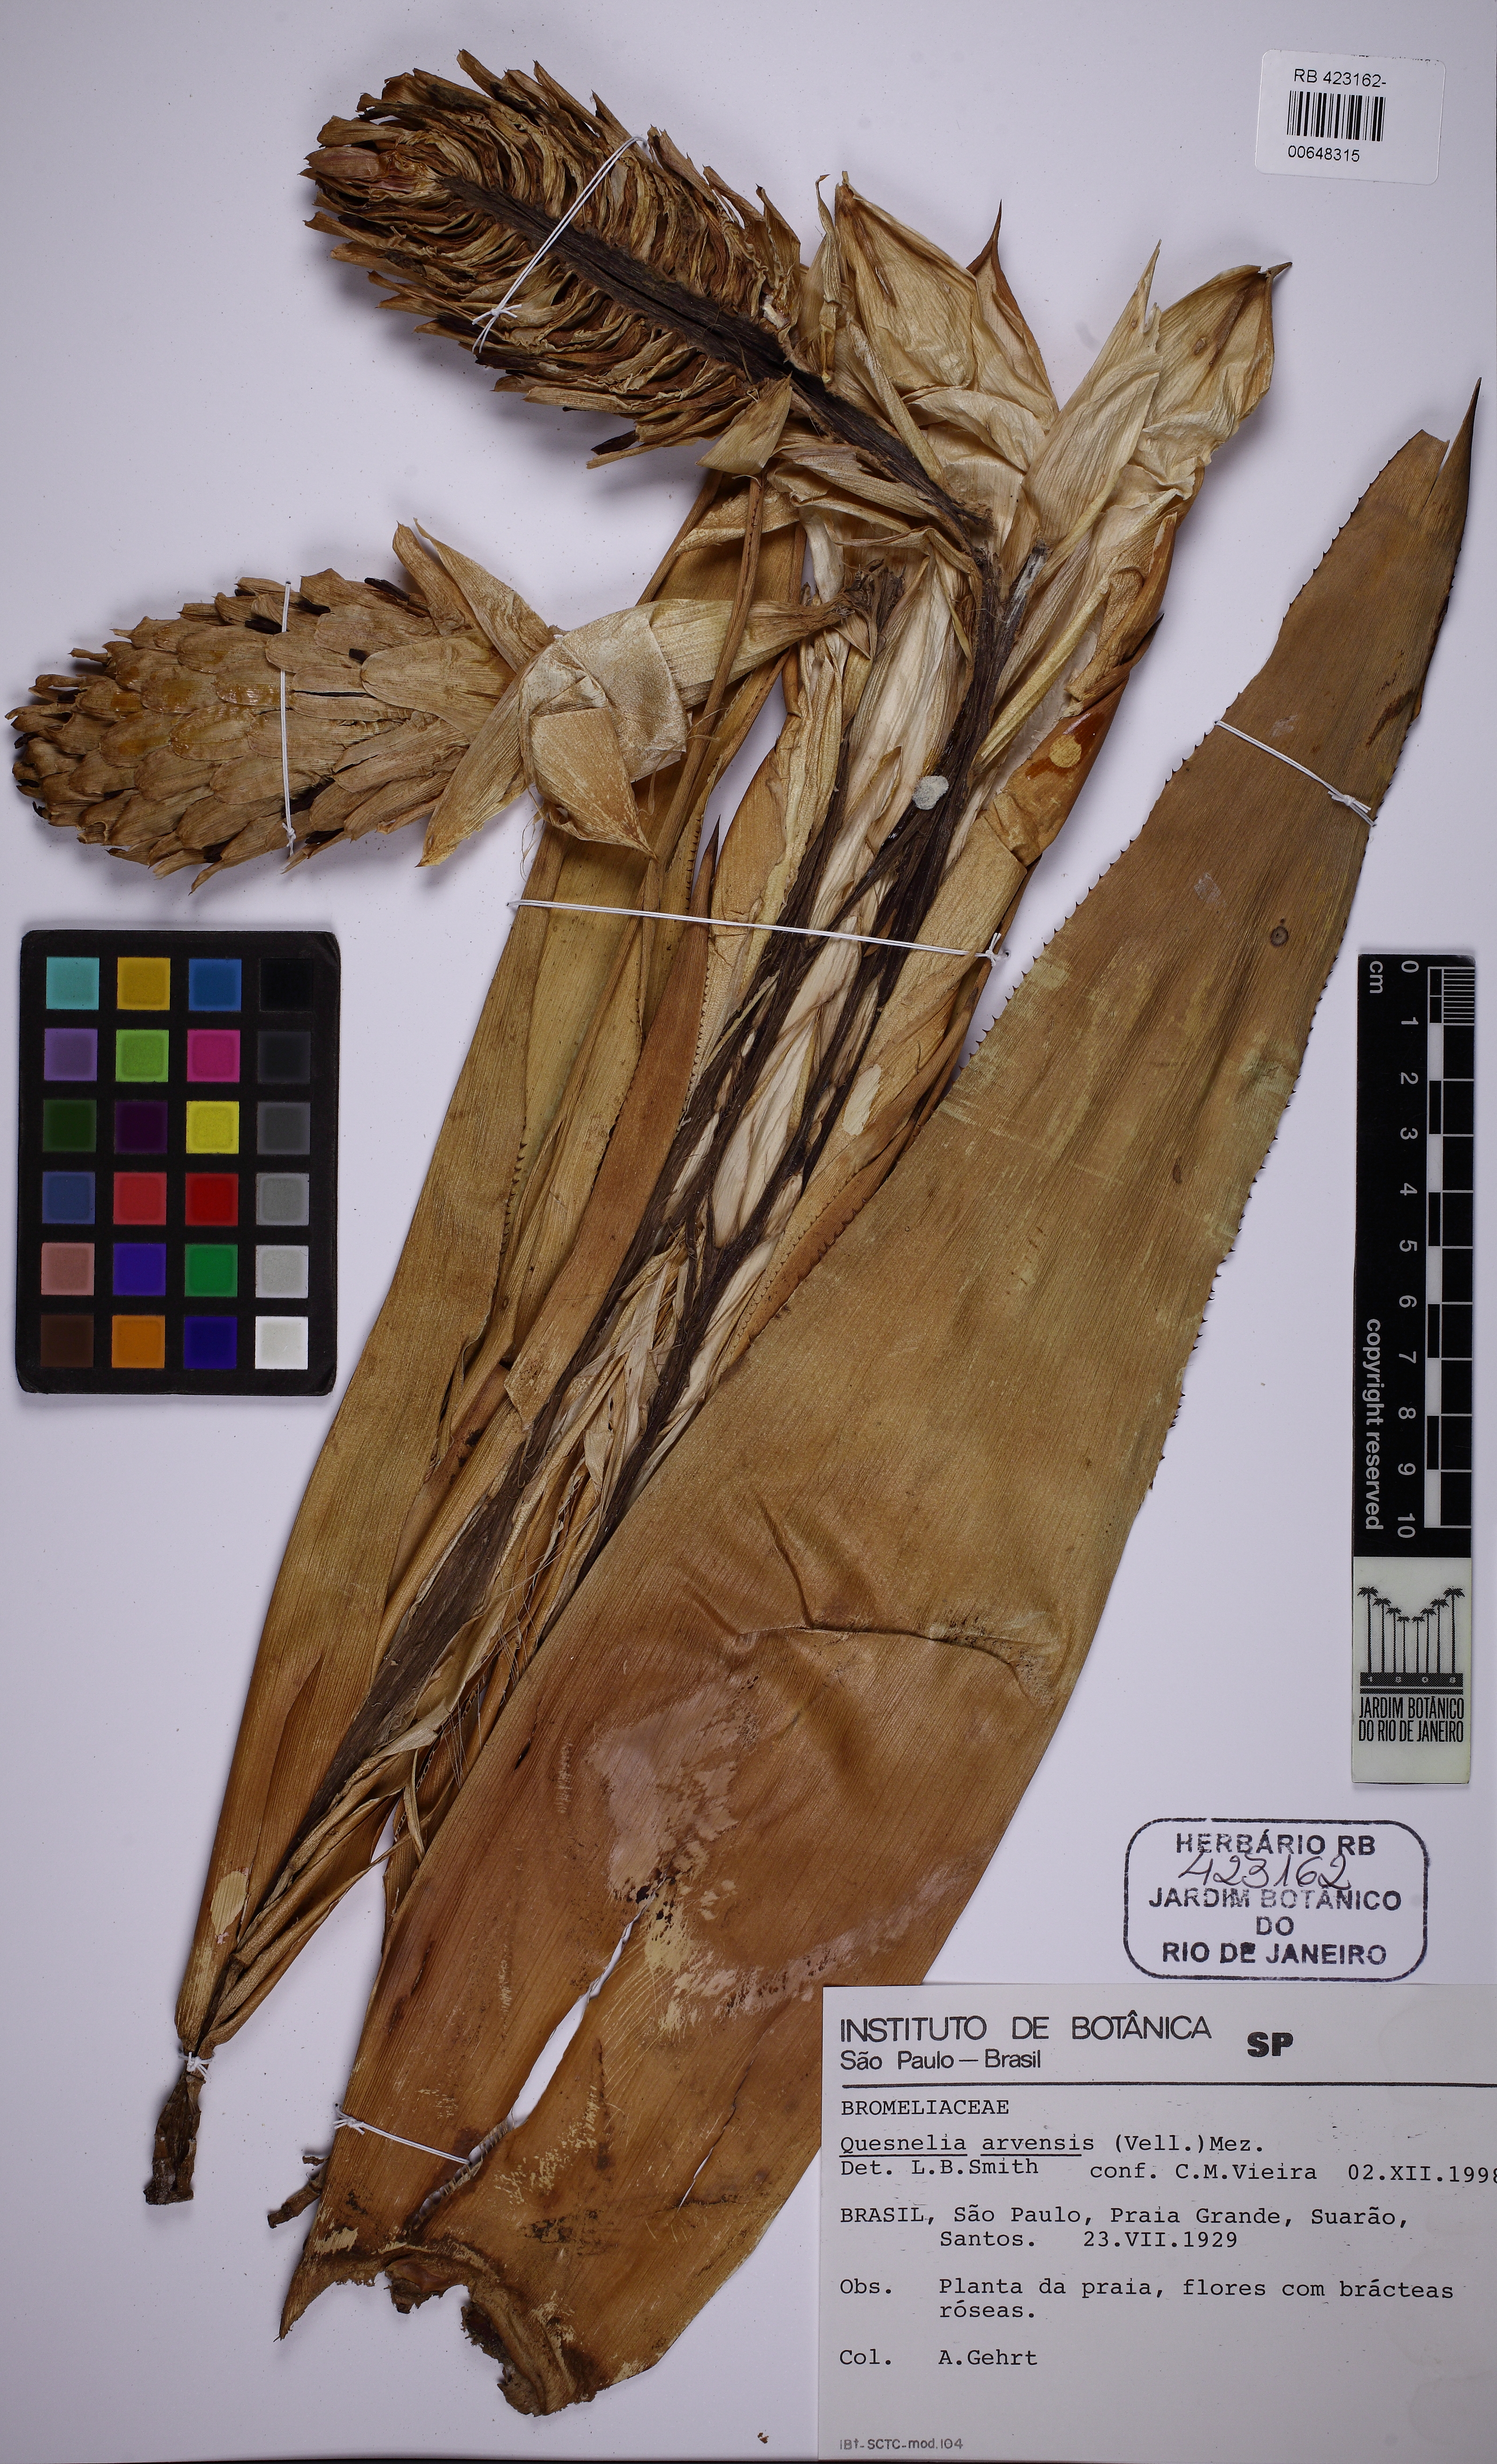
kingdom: Plantae
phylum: Tracheophyta
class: Liliopsida
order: Poales
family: Bromeliaceae
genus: Quesnelia
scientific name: Quesnelia arvensis
